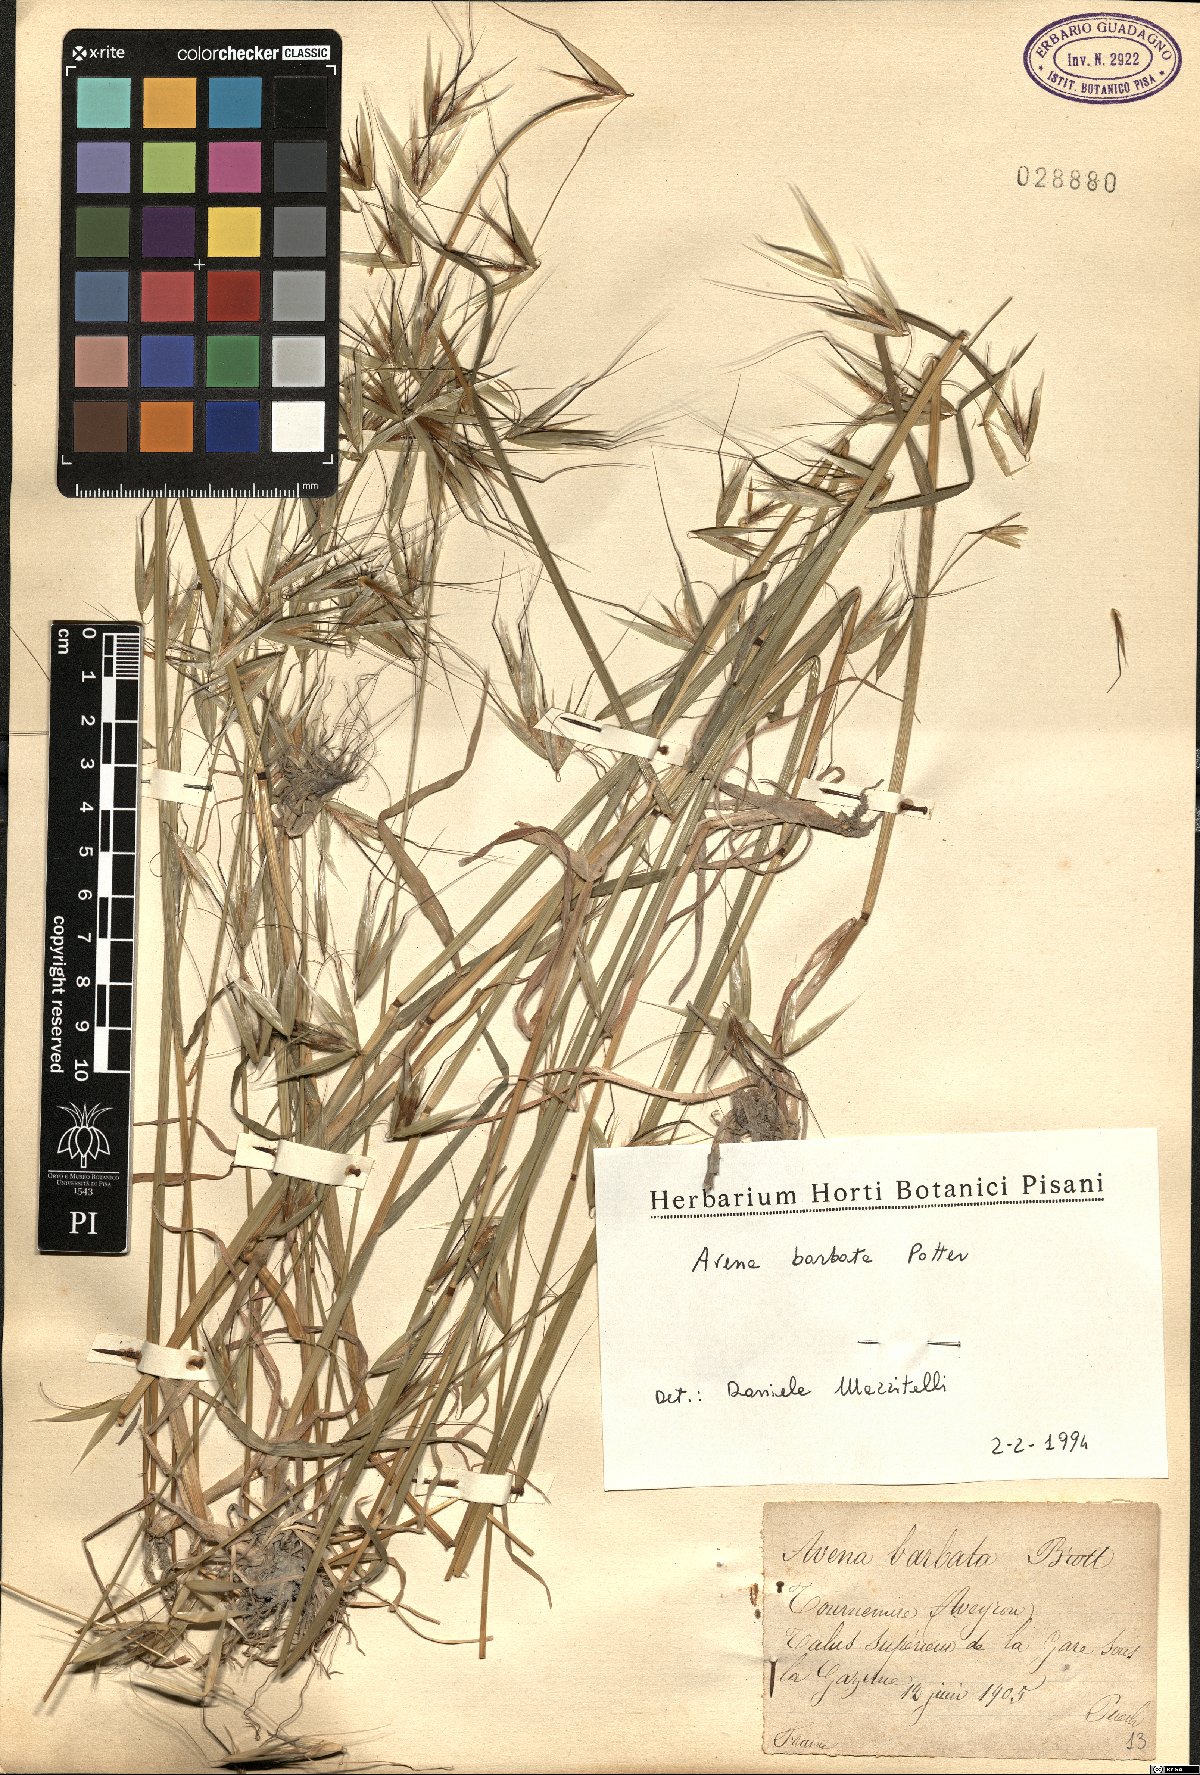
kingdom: Plantae
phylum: Tracheophyta
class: Liliopsida
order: Poales
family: Poaceae
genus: Avena
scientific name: Avena barbata
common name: Slender oat
